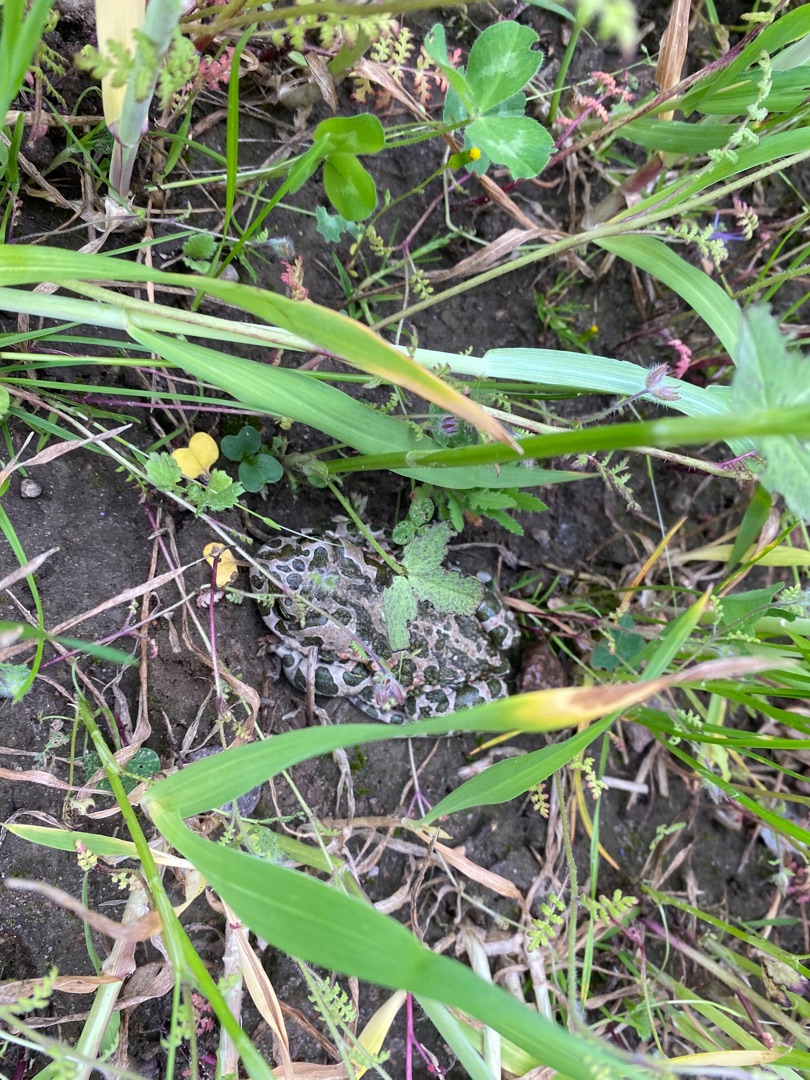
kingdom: Animalia
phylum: Chordata
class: Amphibia
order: Anura
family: Bufonidae
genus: Bufotes
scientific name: Bufotes viridis
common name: Grønbroget tudse
